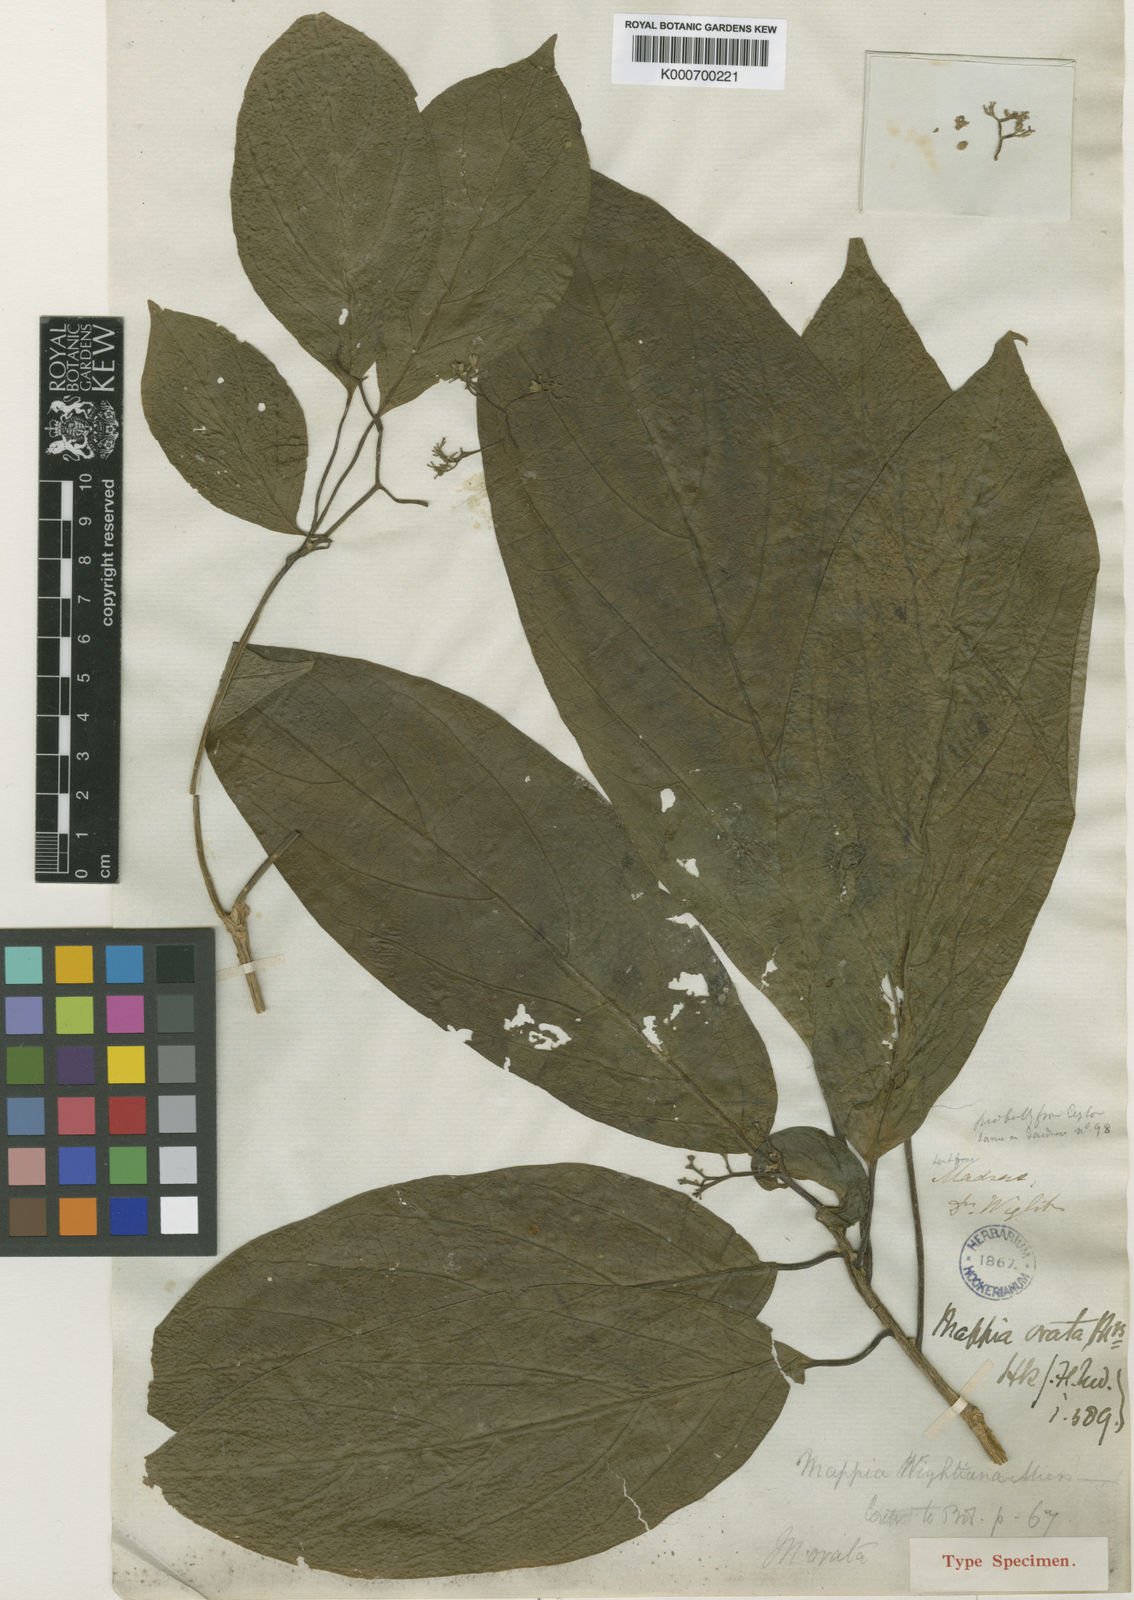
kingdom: Plantae
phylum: Tracheophyta
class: Magnoliopsida
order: Icacinales
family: Icacinaceae
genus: Nothapodytes
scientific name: Nothapodytes nimmoniana
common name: Nothapodytes
